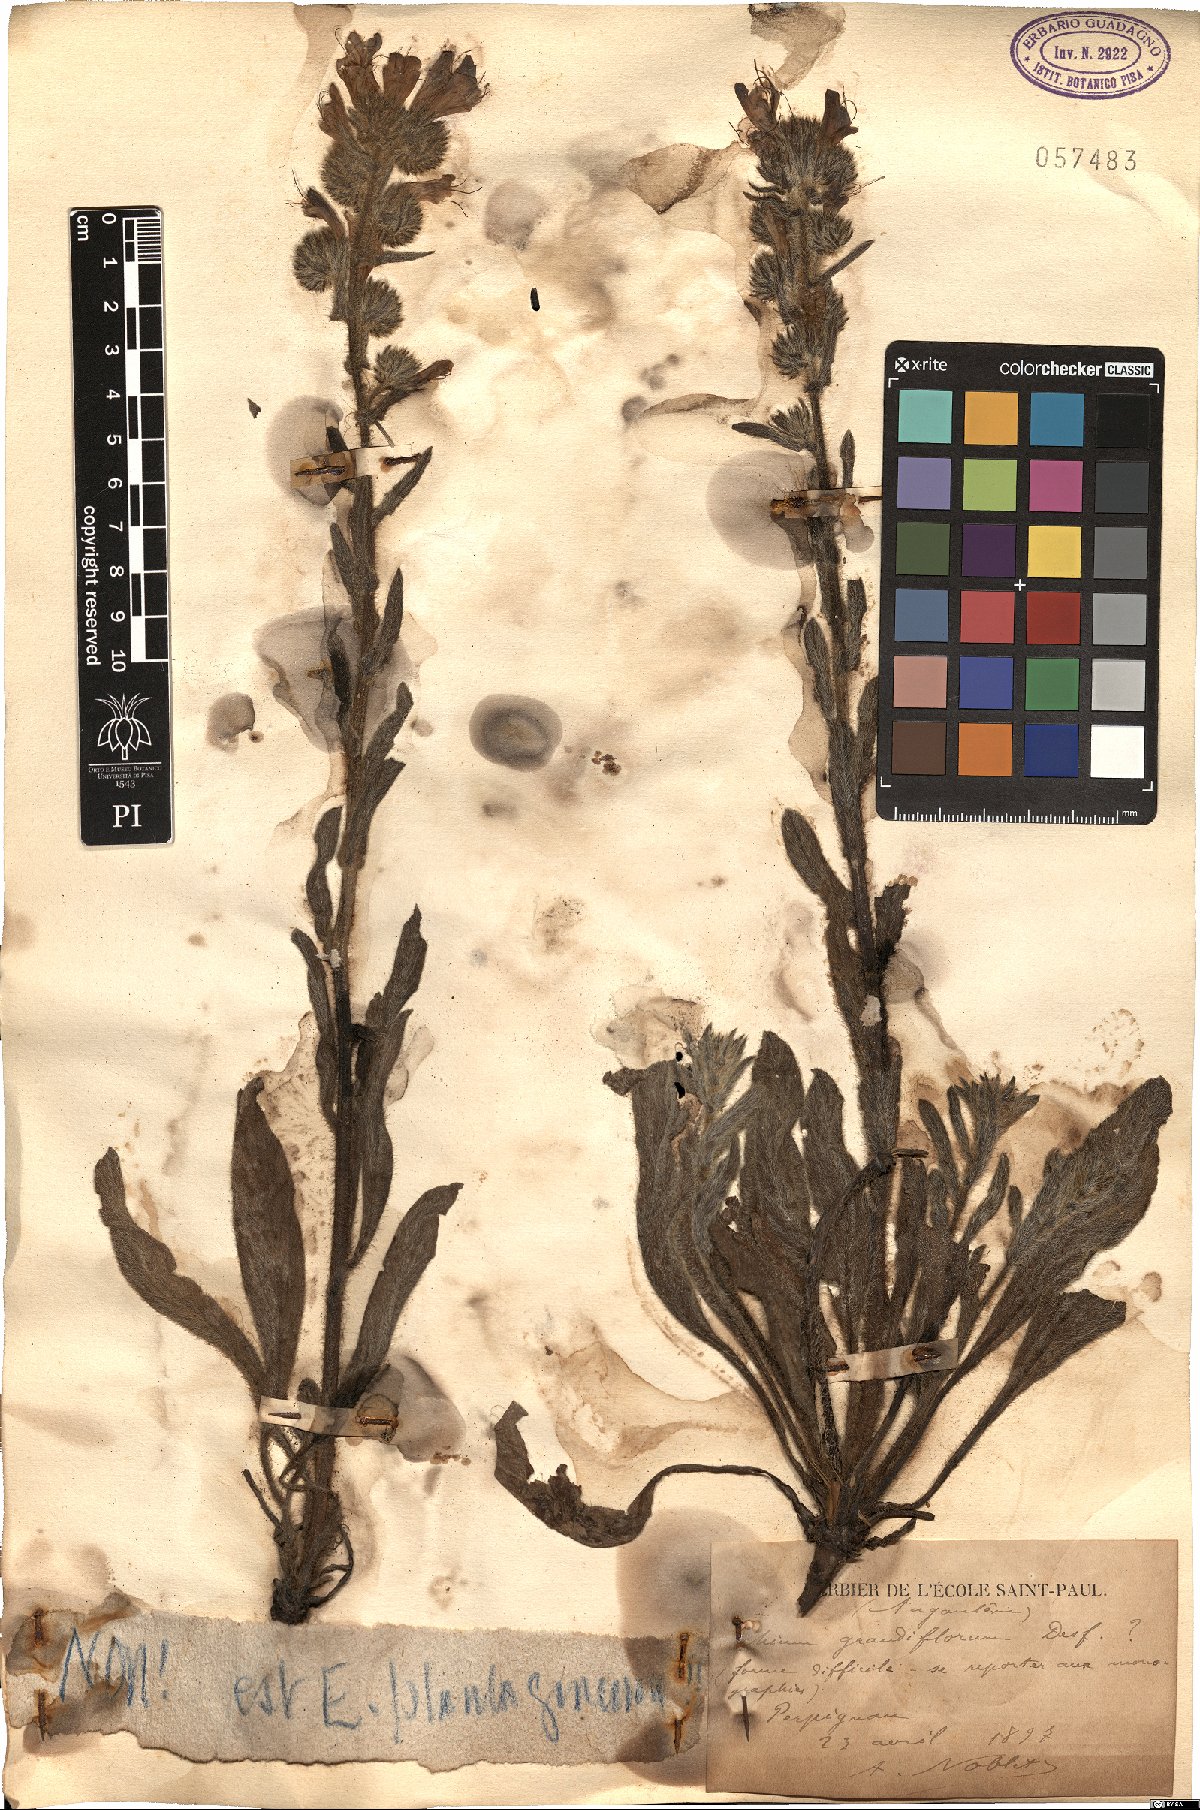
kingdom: Plantae
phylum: Tracheophyta
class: Magnoliopsida
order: Boraginales
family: Boraginaceae
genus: Echium
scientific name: Echium plantagineum
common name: Purple viper's-bugloss
